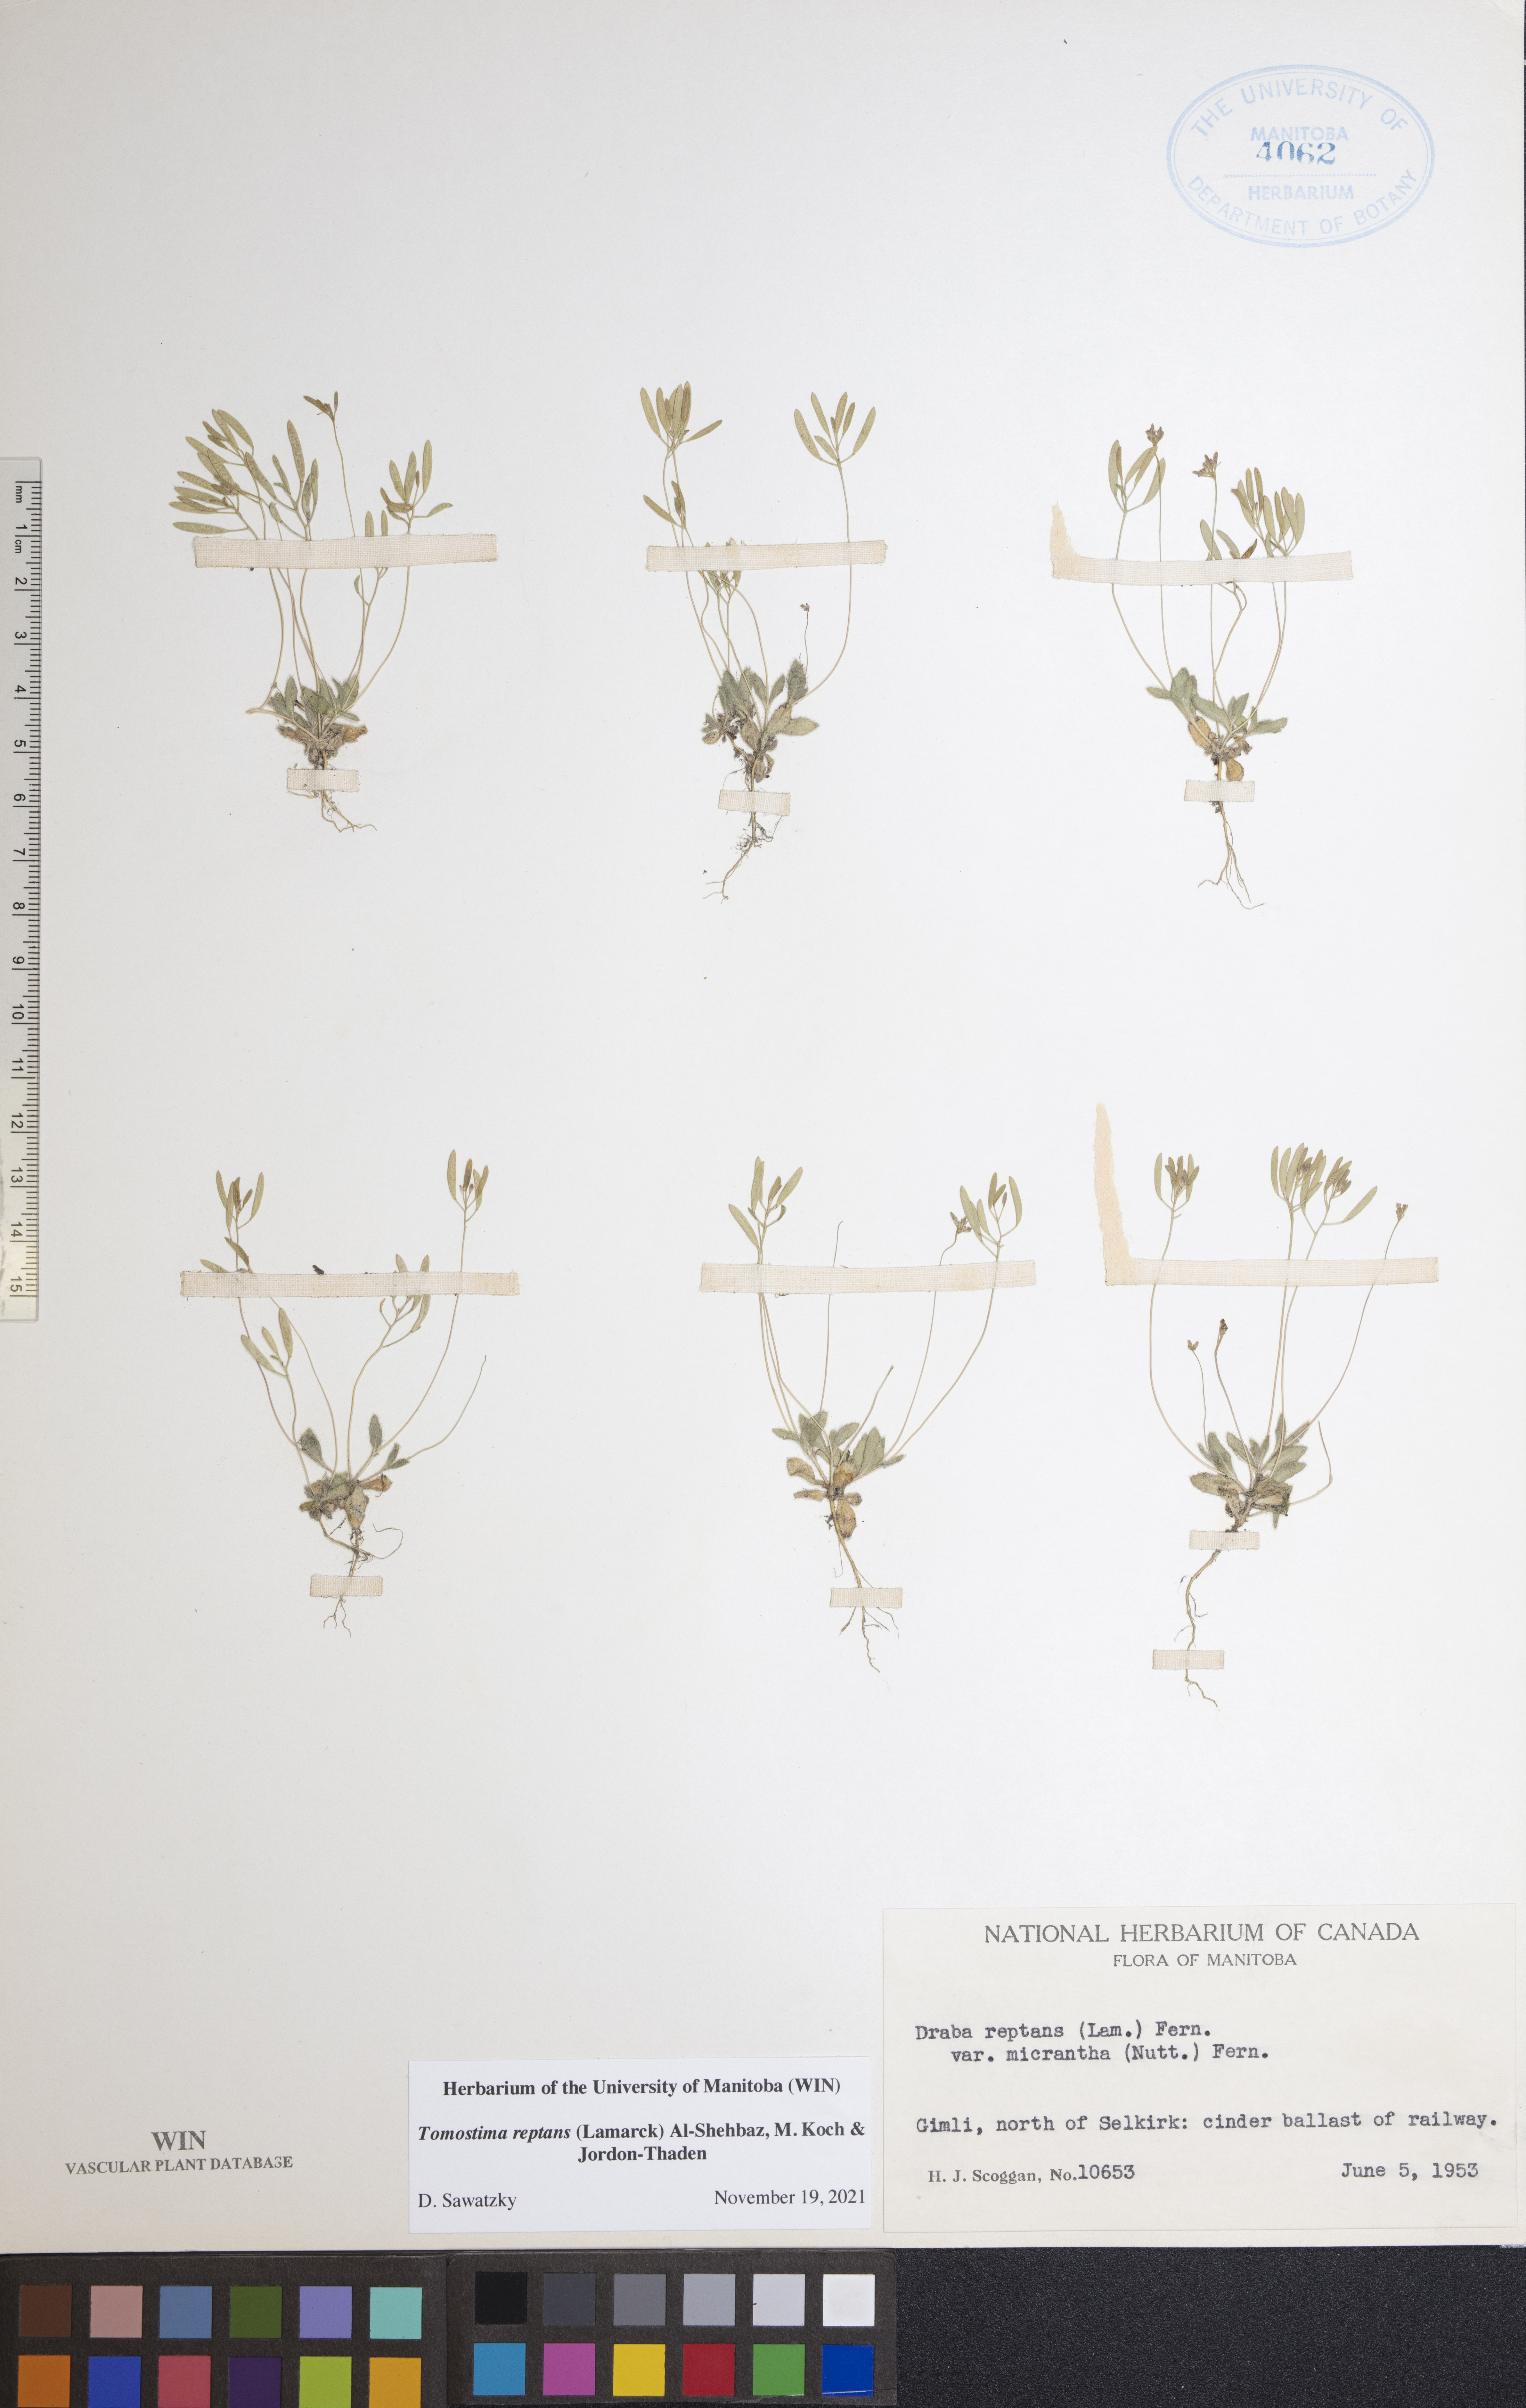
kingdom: Plantae
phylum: Tracheophyta
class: Magnoliopsida
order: Brassicales
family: Brassicaceae
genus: Tomostima
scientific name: Tomostima reptans
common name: Carolina draba
